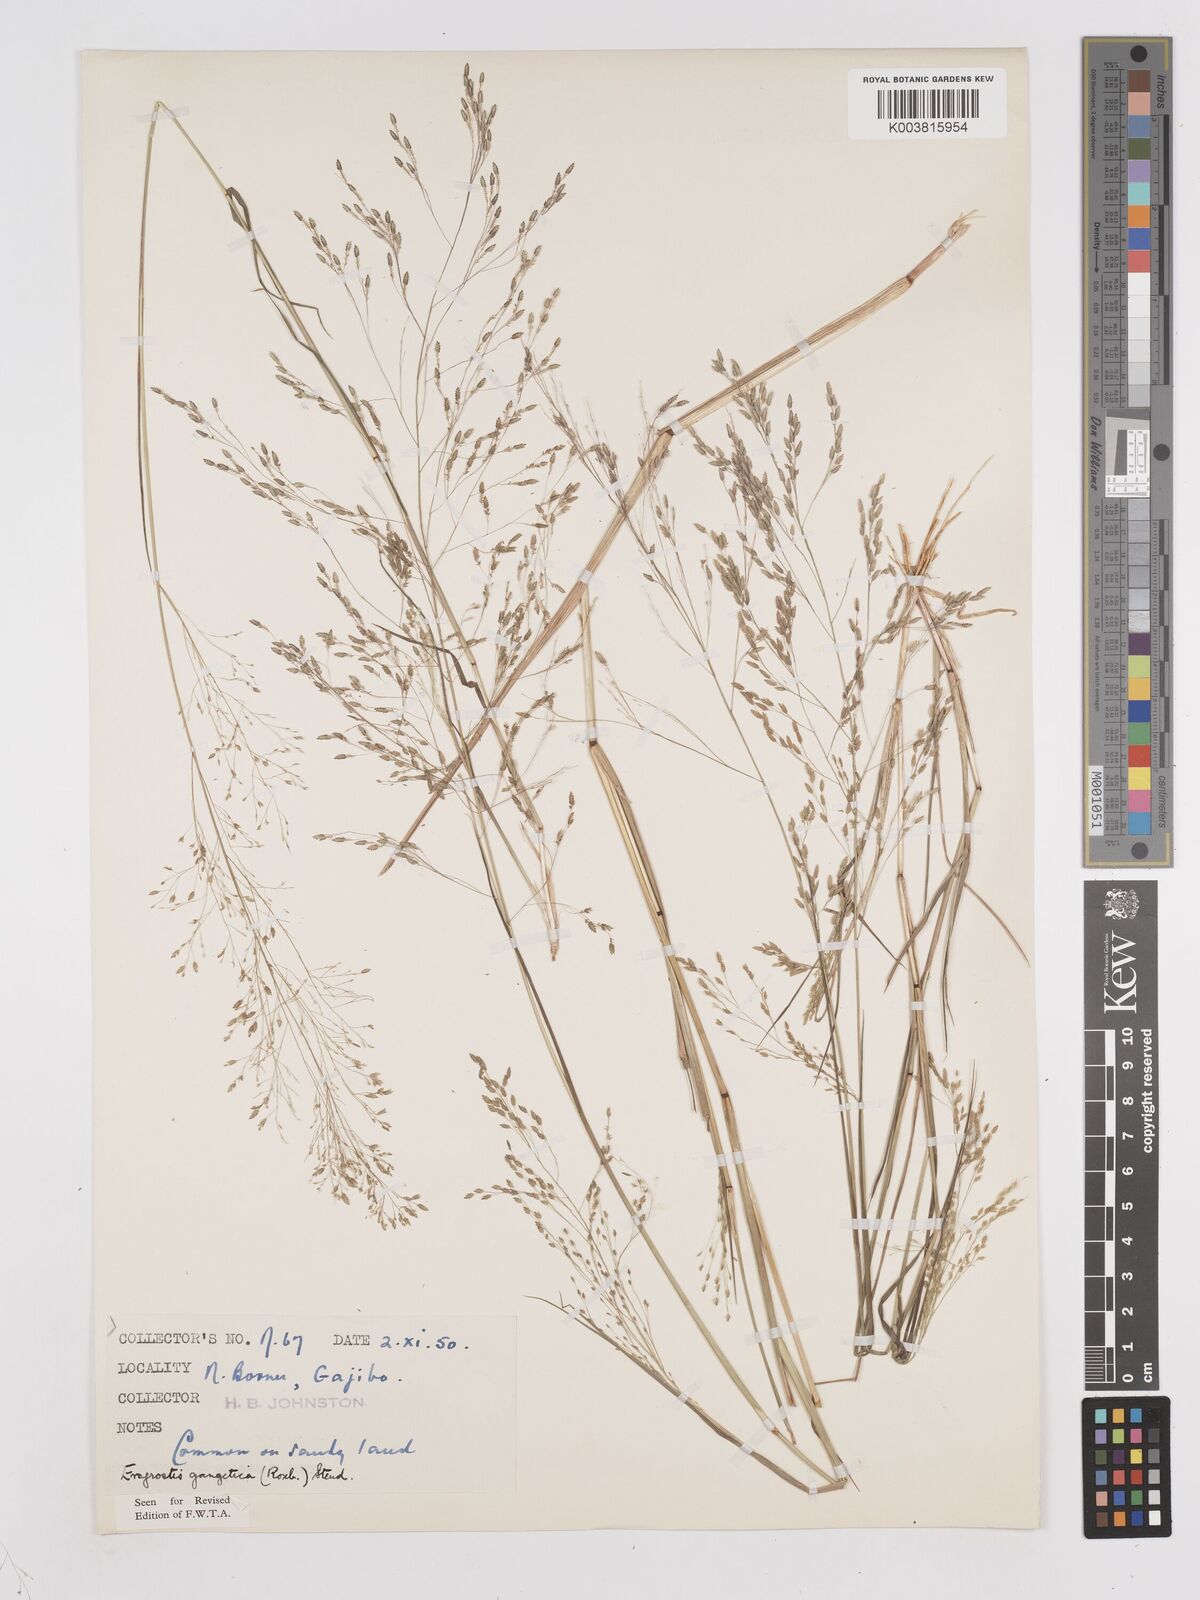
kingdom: Plantae
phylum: Tracheophyta
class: Liliopsida
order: Poales
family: Poaceae
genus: Eragrostis
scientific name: Eragrostis gangetica
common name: Slimflower lovegrass
